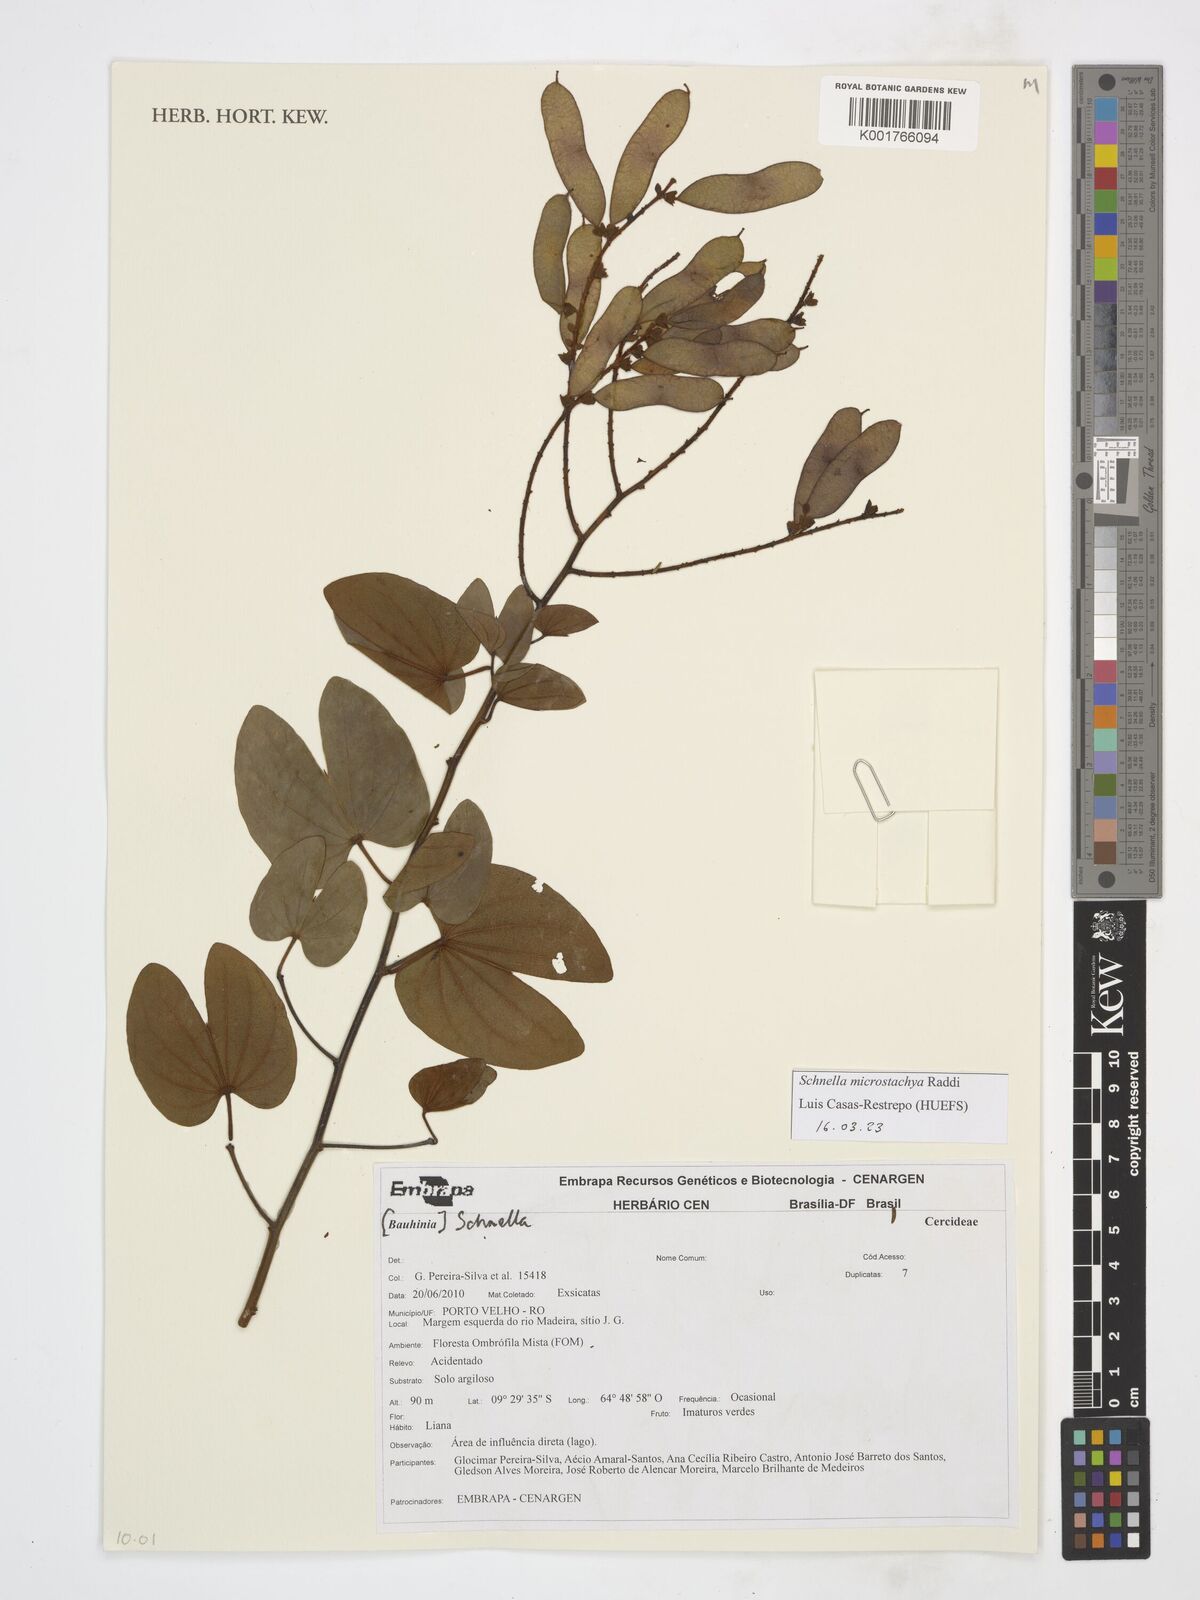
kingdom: Plantae
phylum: Tracheophyta
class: Magnoliopsida
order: Fabales
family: Fabaceae
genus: Schnella
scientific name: Schnella macrostachya
